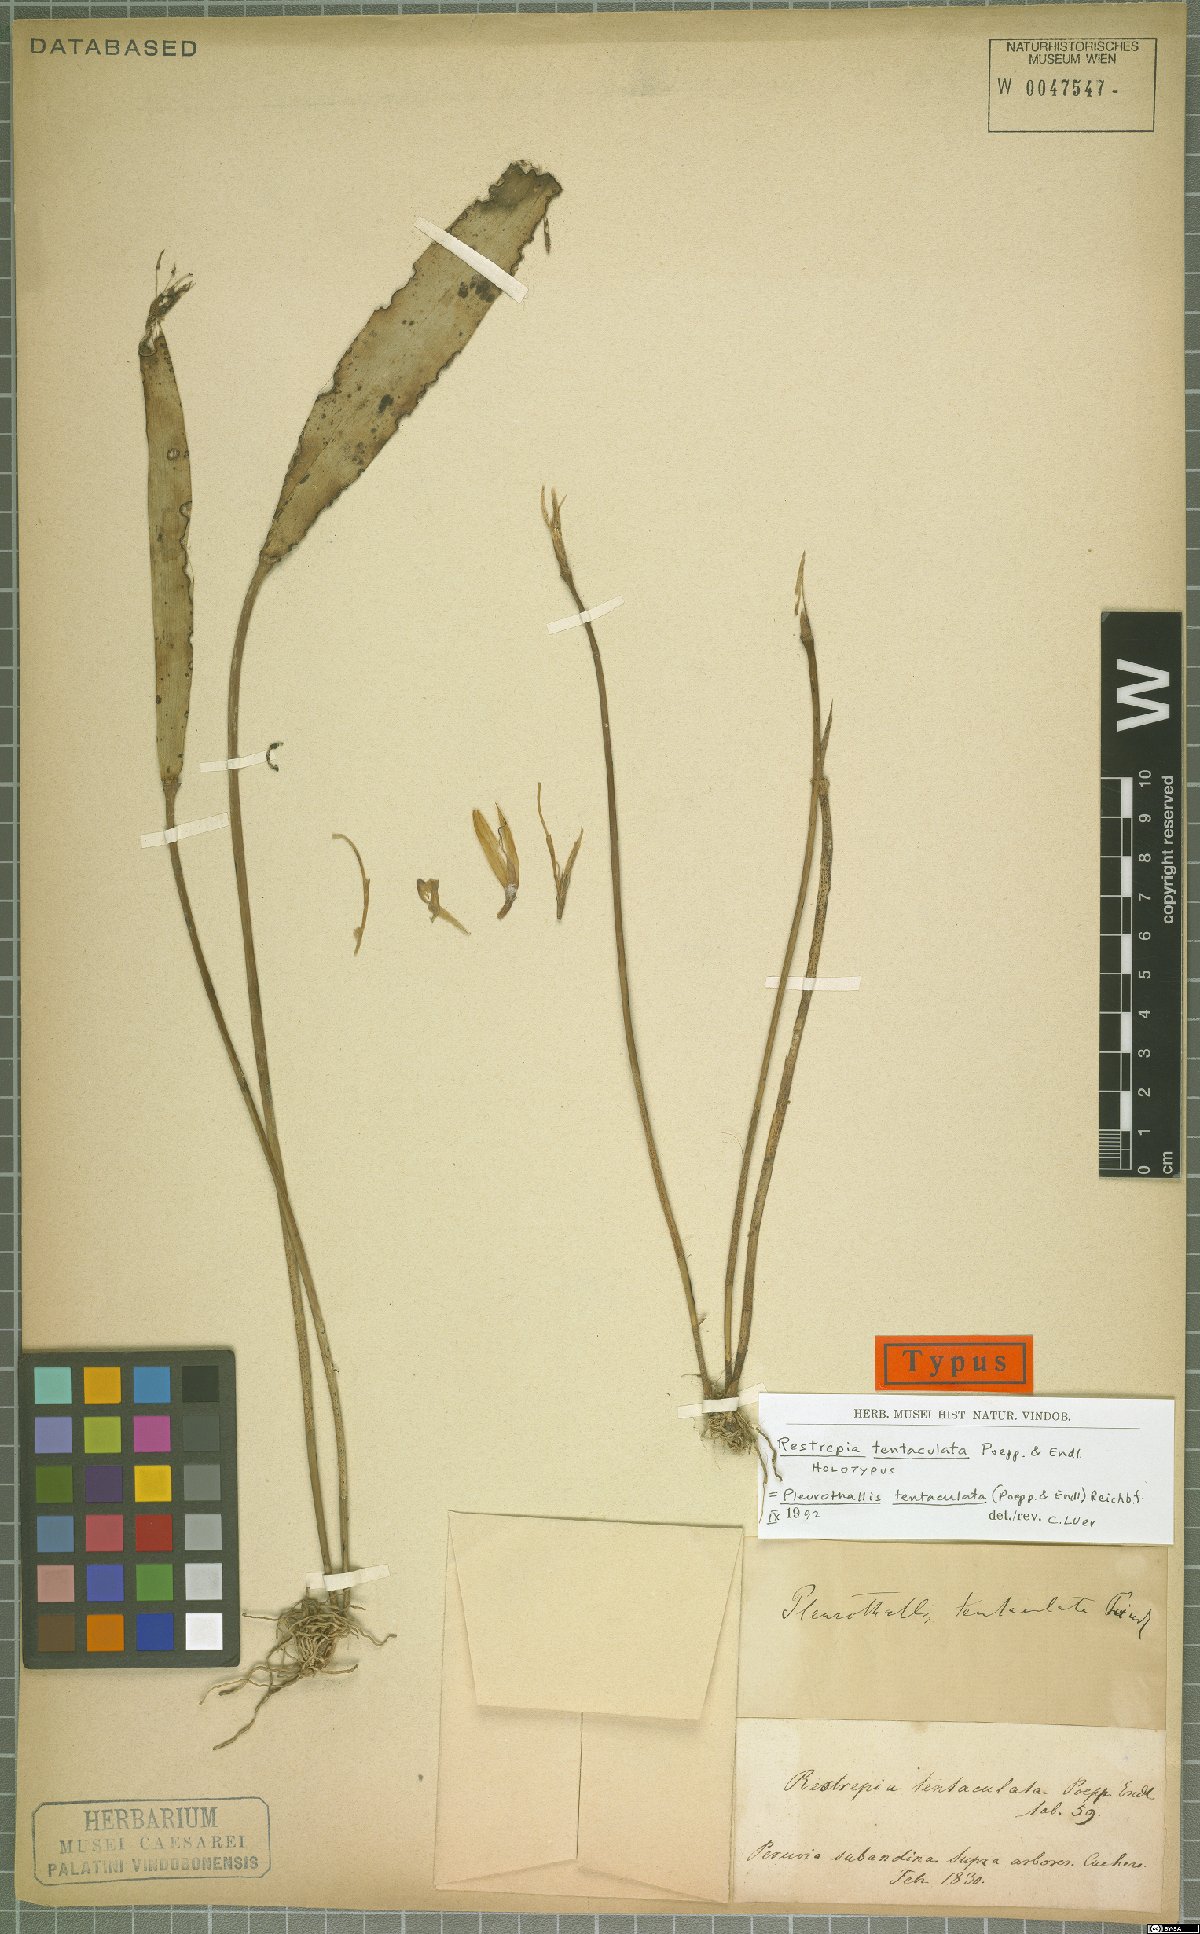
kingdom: Plantae
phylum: Tracheophyta
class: Liliopsida
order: Asparagales
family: Orchidaceae
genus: Pleurothallis
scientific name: Pleurothallis tentaculata
